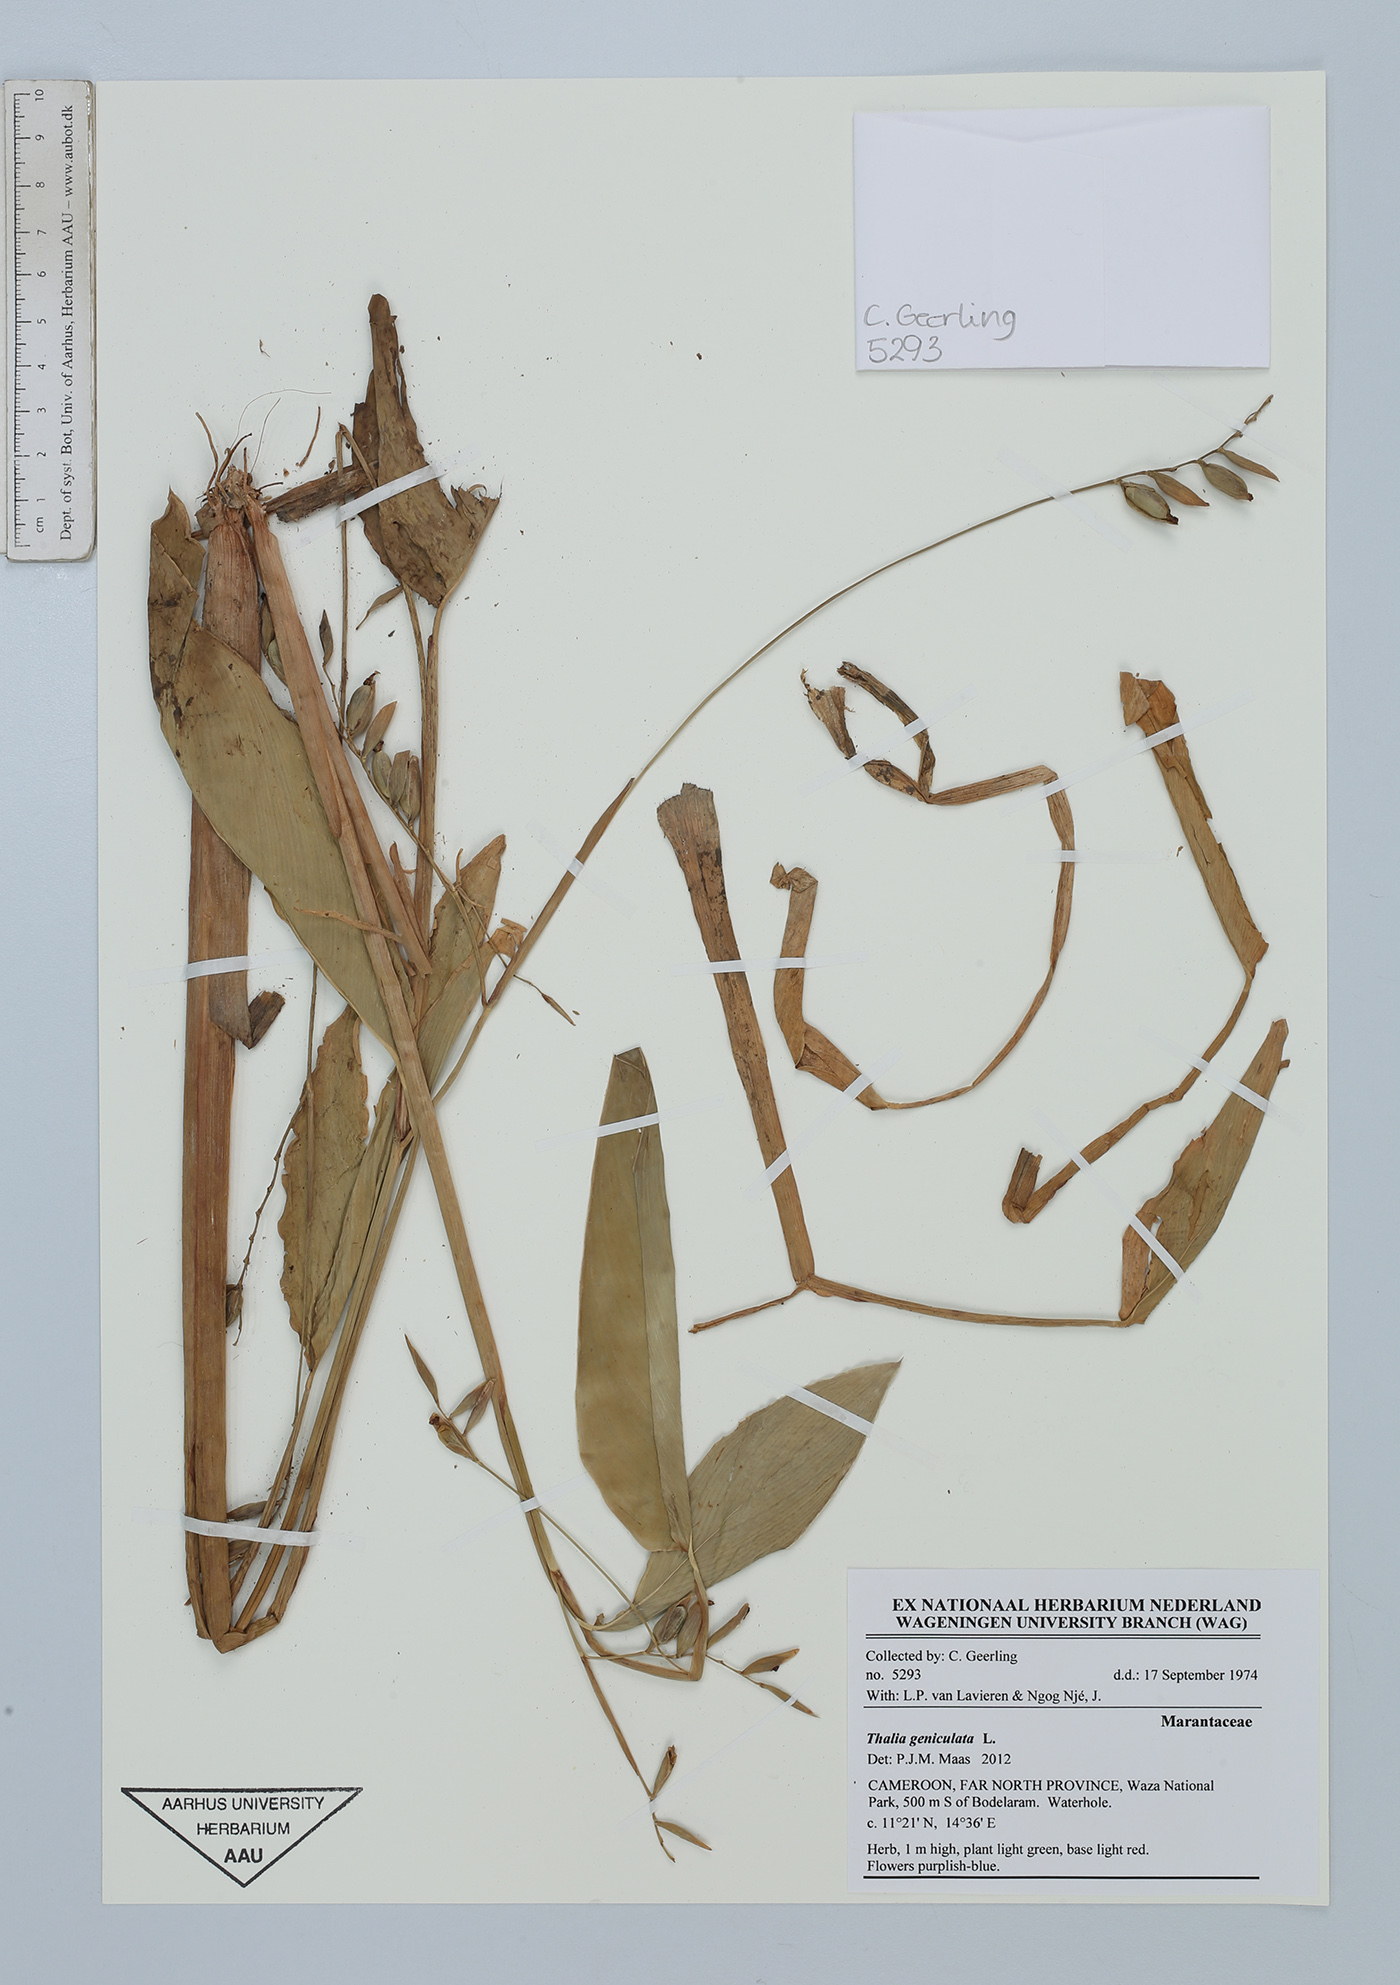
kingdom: Plantae
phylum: Tracheophyta
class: Liliopsida
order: Zingiberales
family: Marantaceae
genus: Thalia
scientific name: Thalia geniculata
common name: Arrowroot
